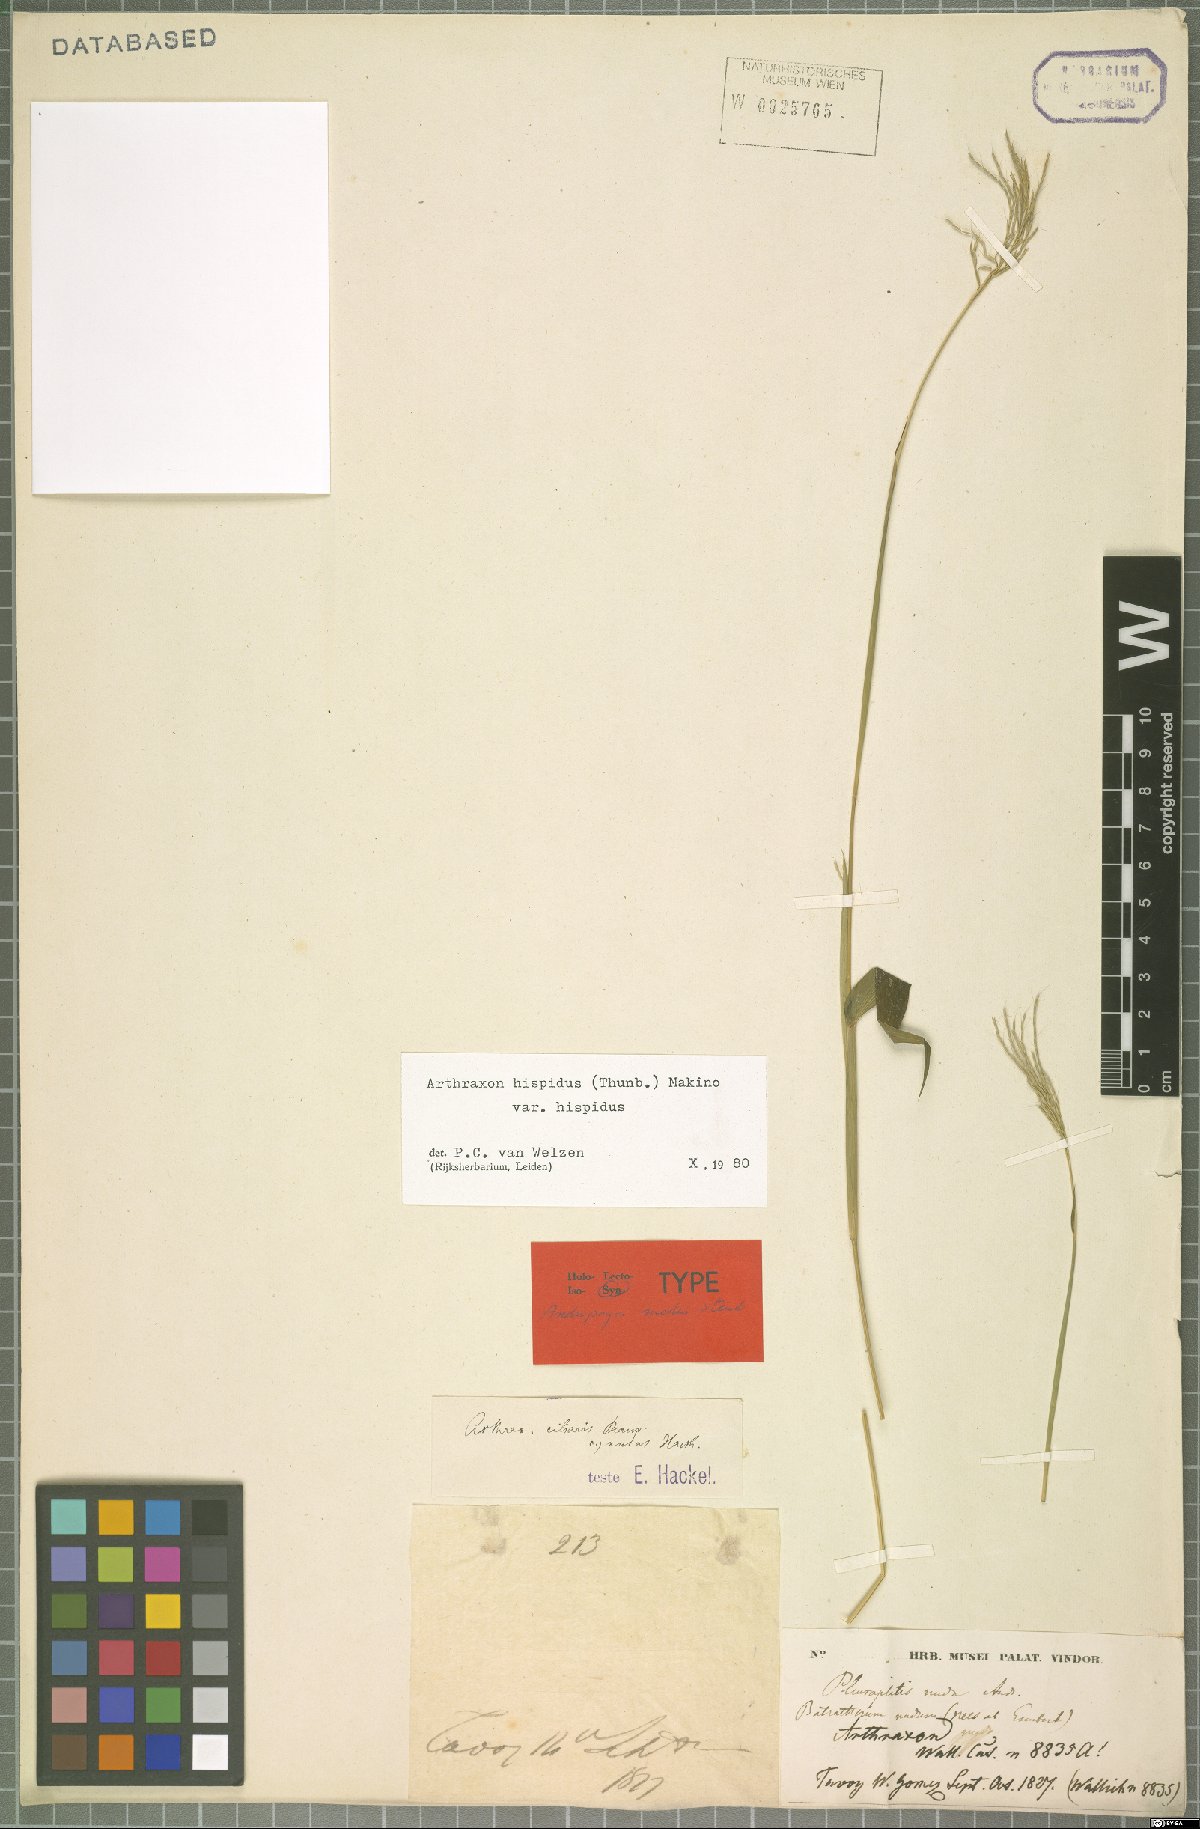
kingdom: Plantae
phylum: Tracheophyta
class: Liliopsida
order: Poales
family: Poaceae
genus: Arthraxon
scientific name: Arthraxon hispidus
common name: Small carpgrass
